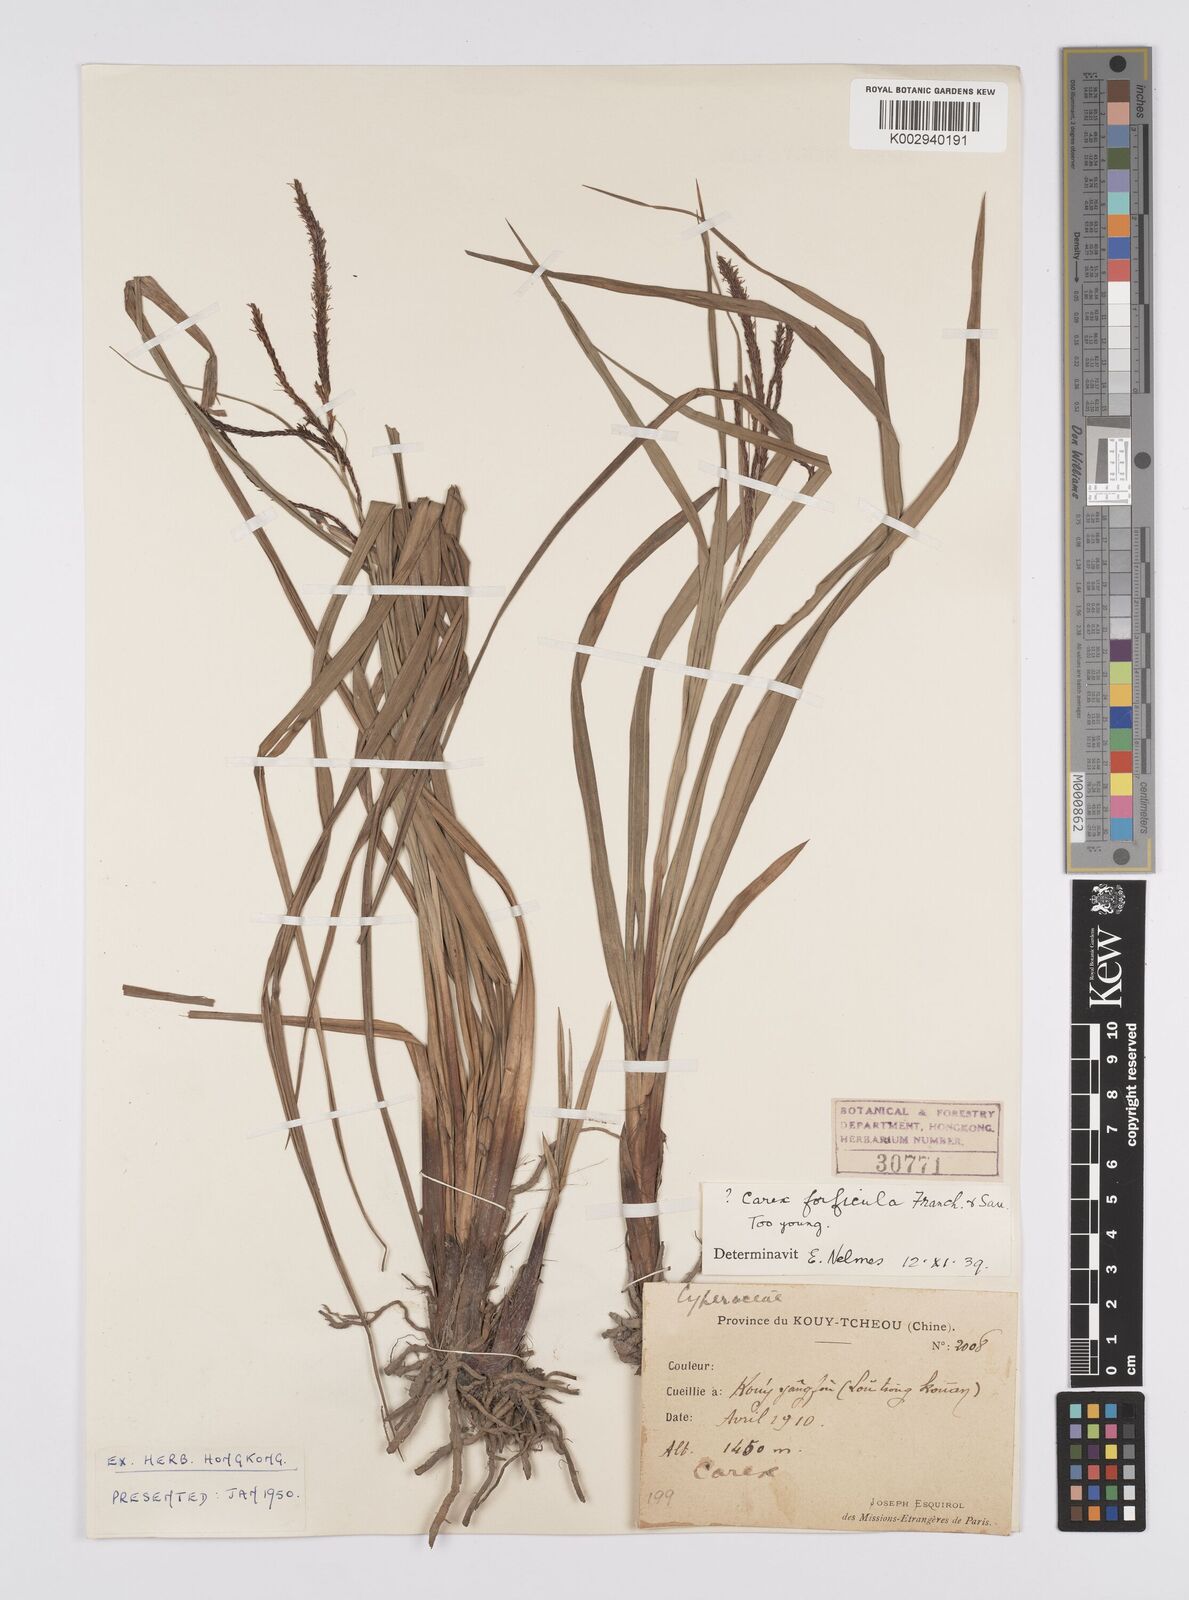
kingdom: Plantae
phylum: Tracheophyta
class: Liliopsida
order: Poales
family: Cyperaceae
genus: Carex
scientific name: Carex forficula
